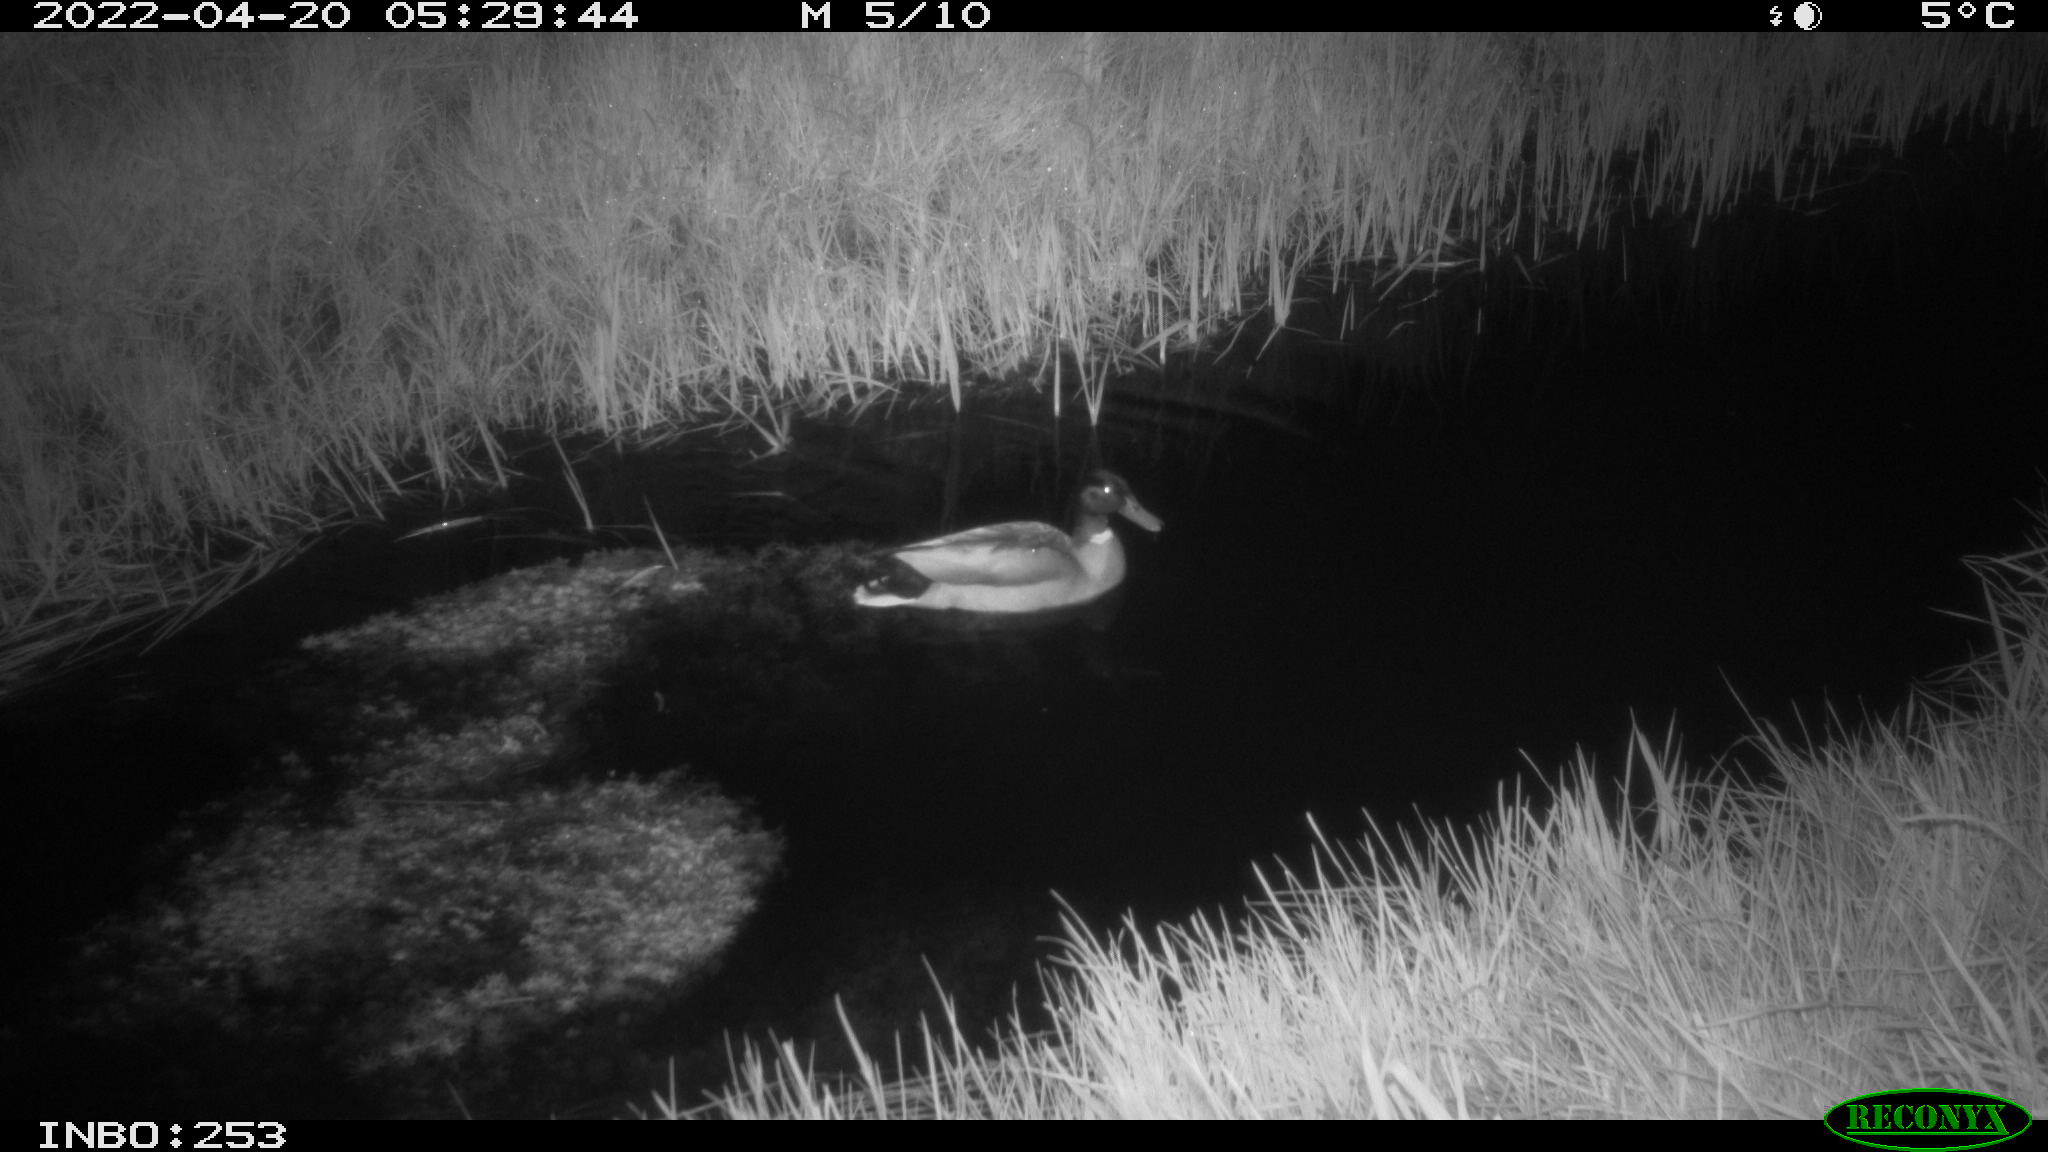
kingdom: Animalia
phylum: Chordata
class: Aves
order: Anseriformes
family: Anatidae
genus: Anas
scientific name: Anas platyrhynchos
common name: Mallard
